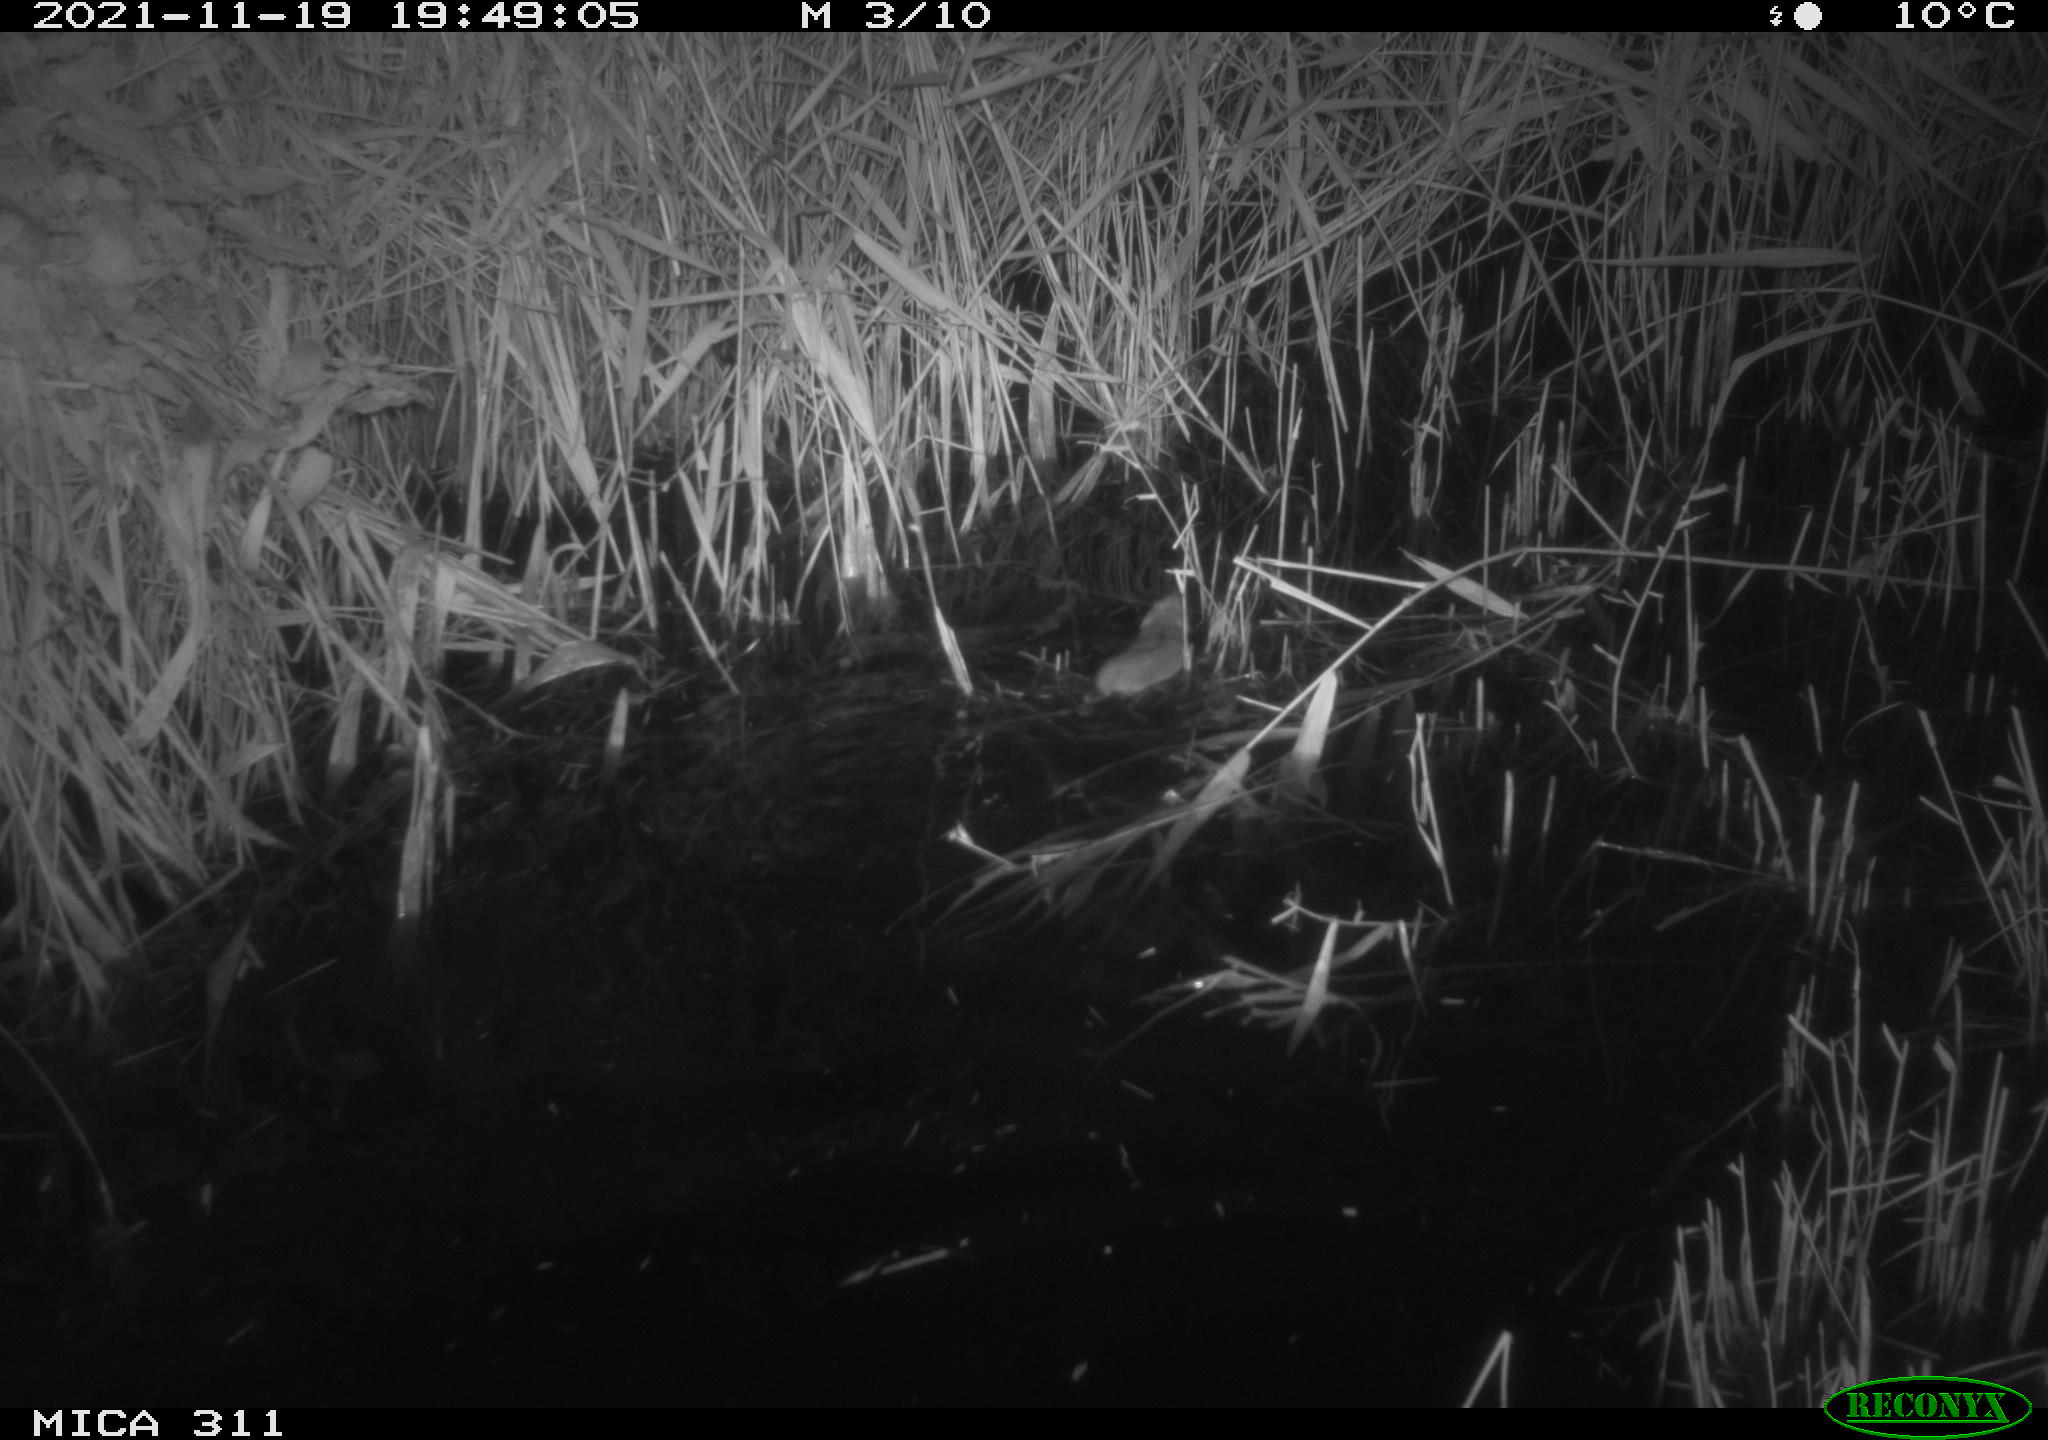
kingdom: Animalia
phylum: Chordata
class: Mammalia
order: Rodentia
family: Muridae
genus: Rattus
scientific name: Rattus norvegicus
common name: Brown rat
